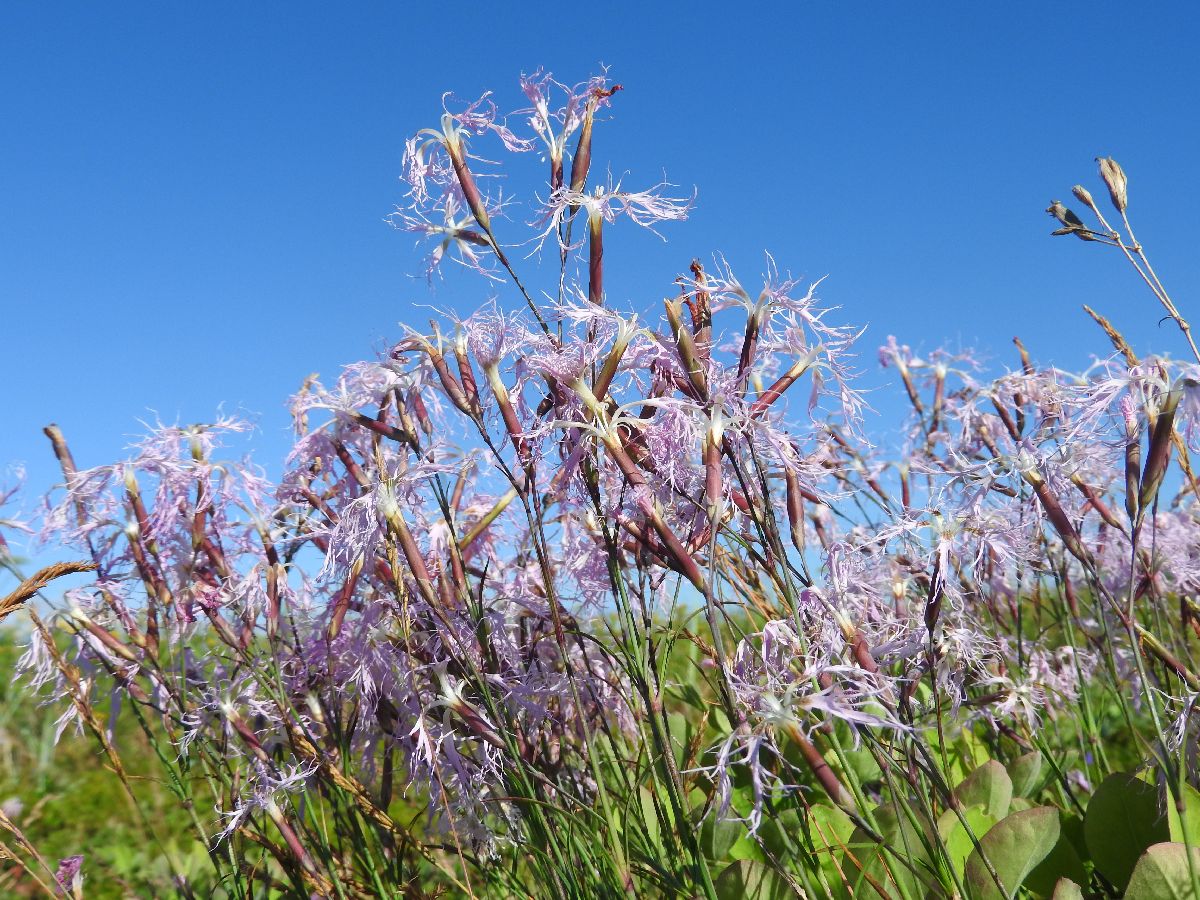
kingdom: Plantae
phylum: Tracheophyta
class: Magnoliopsida
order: Caryophyllales
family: Caryophyllaceae
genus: Dianthus
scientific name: Dianthus superbus
